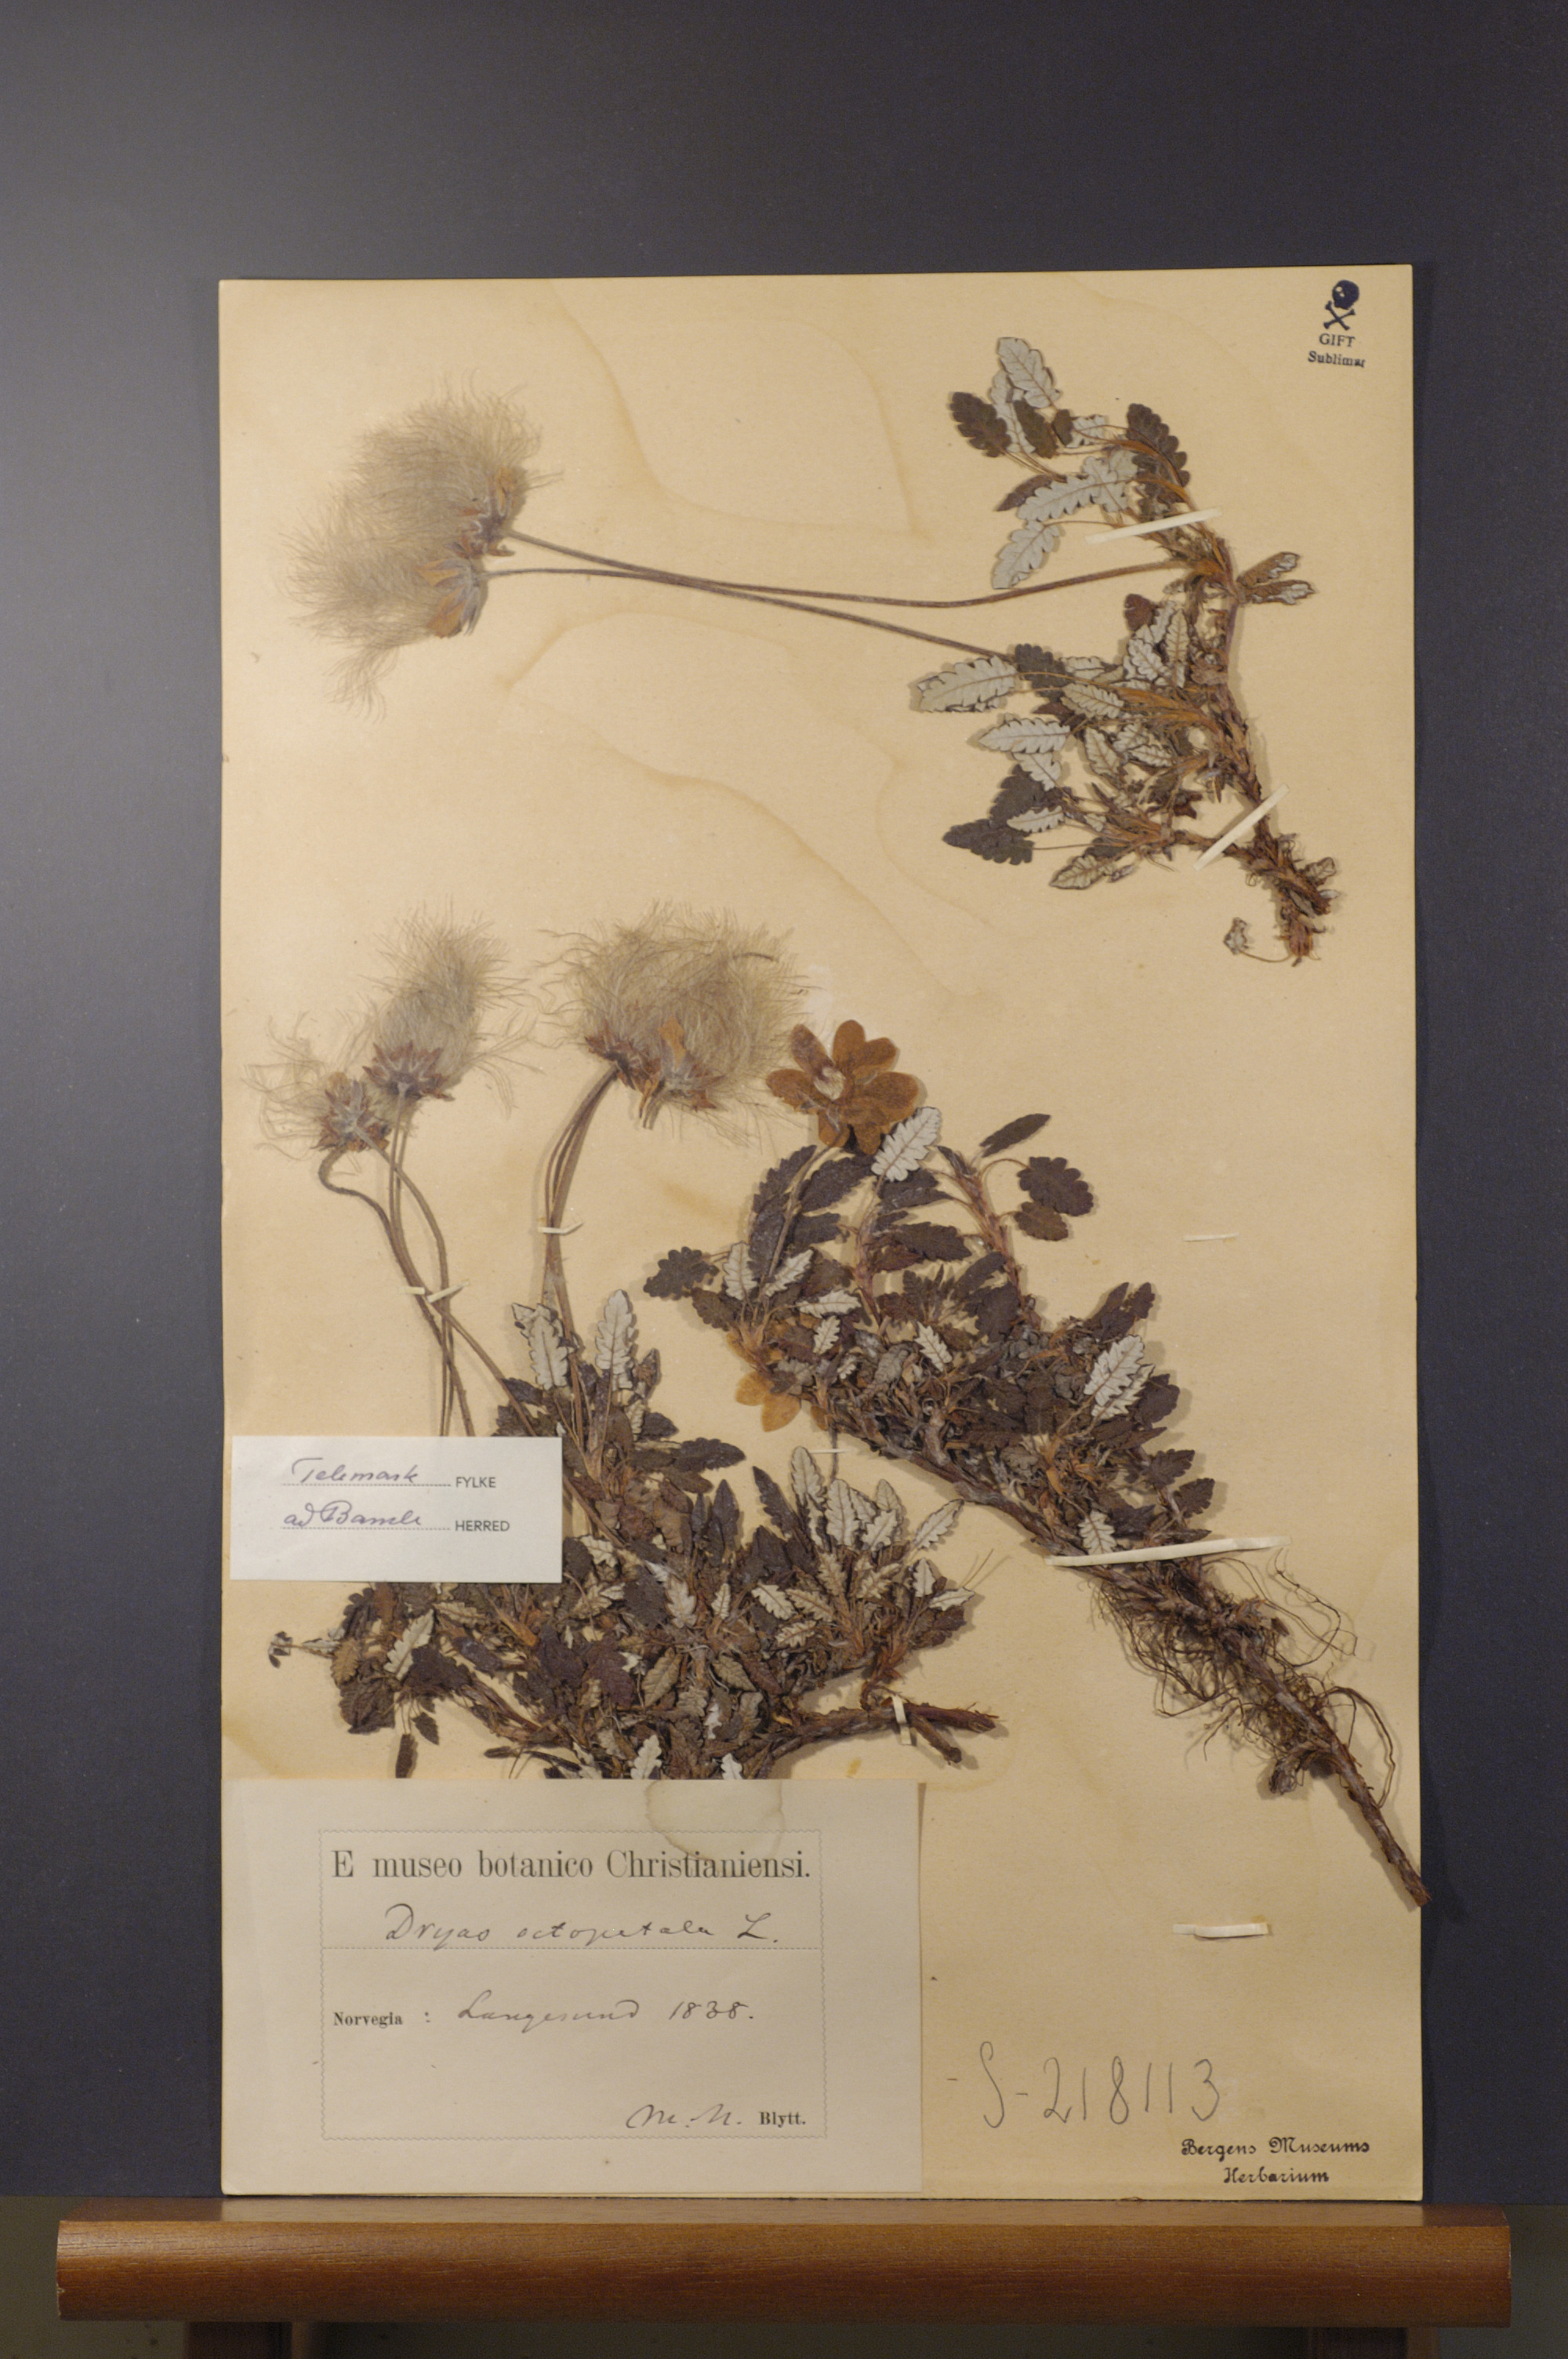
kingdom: Plantae
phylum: Tracheophyta
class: Magnoliopsida
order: Rosales
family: Rosaceae
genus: Dryas
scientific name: Dryas octopetala
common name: Eight-petal mountain-avens
